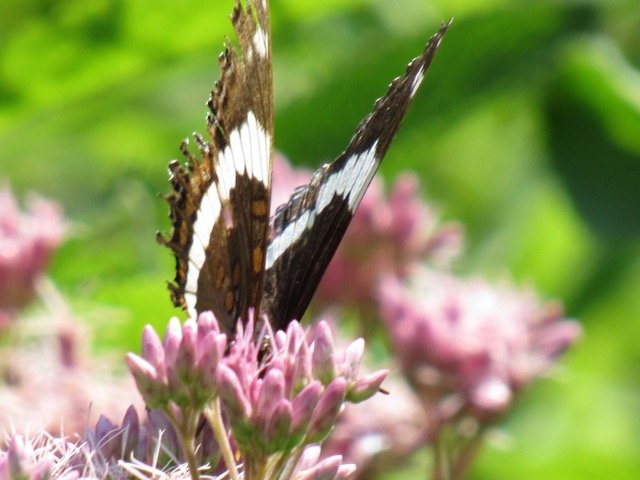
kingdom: Animalia
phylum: Arthropoda
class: Insecta
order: Lepidoptera
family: Nymphalidae
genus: Limenitis
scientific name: Limenitis
